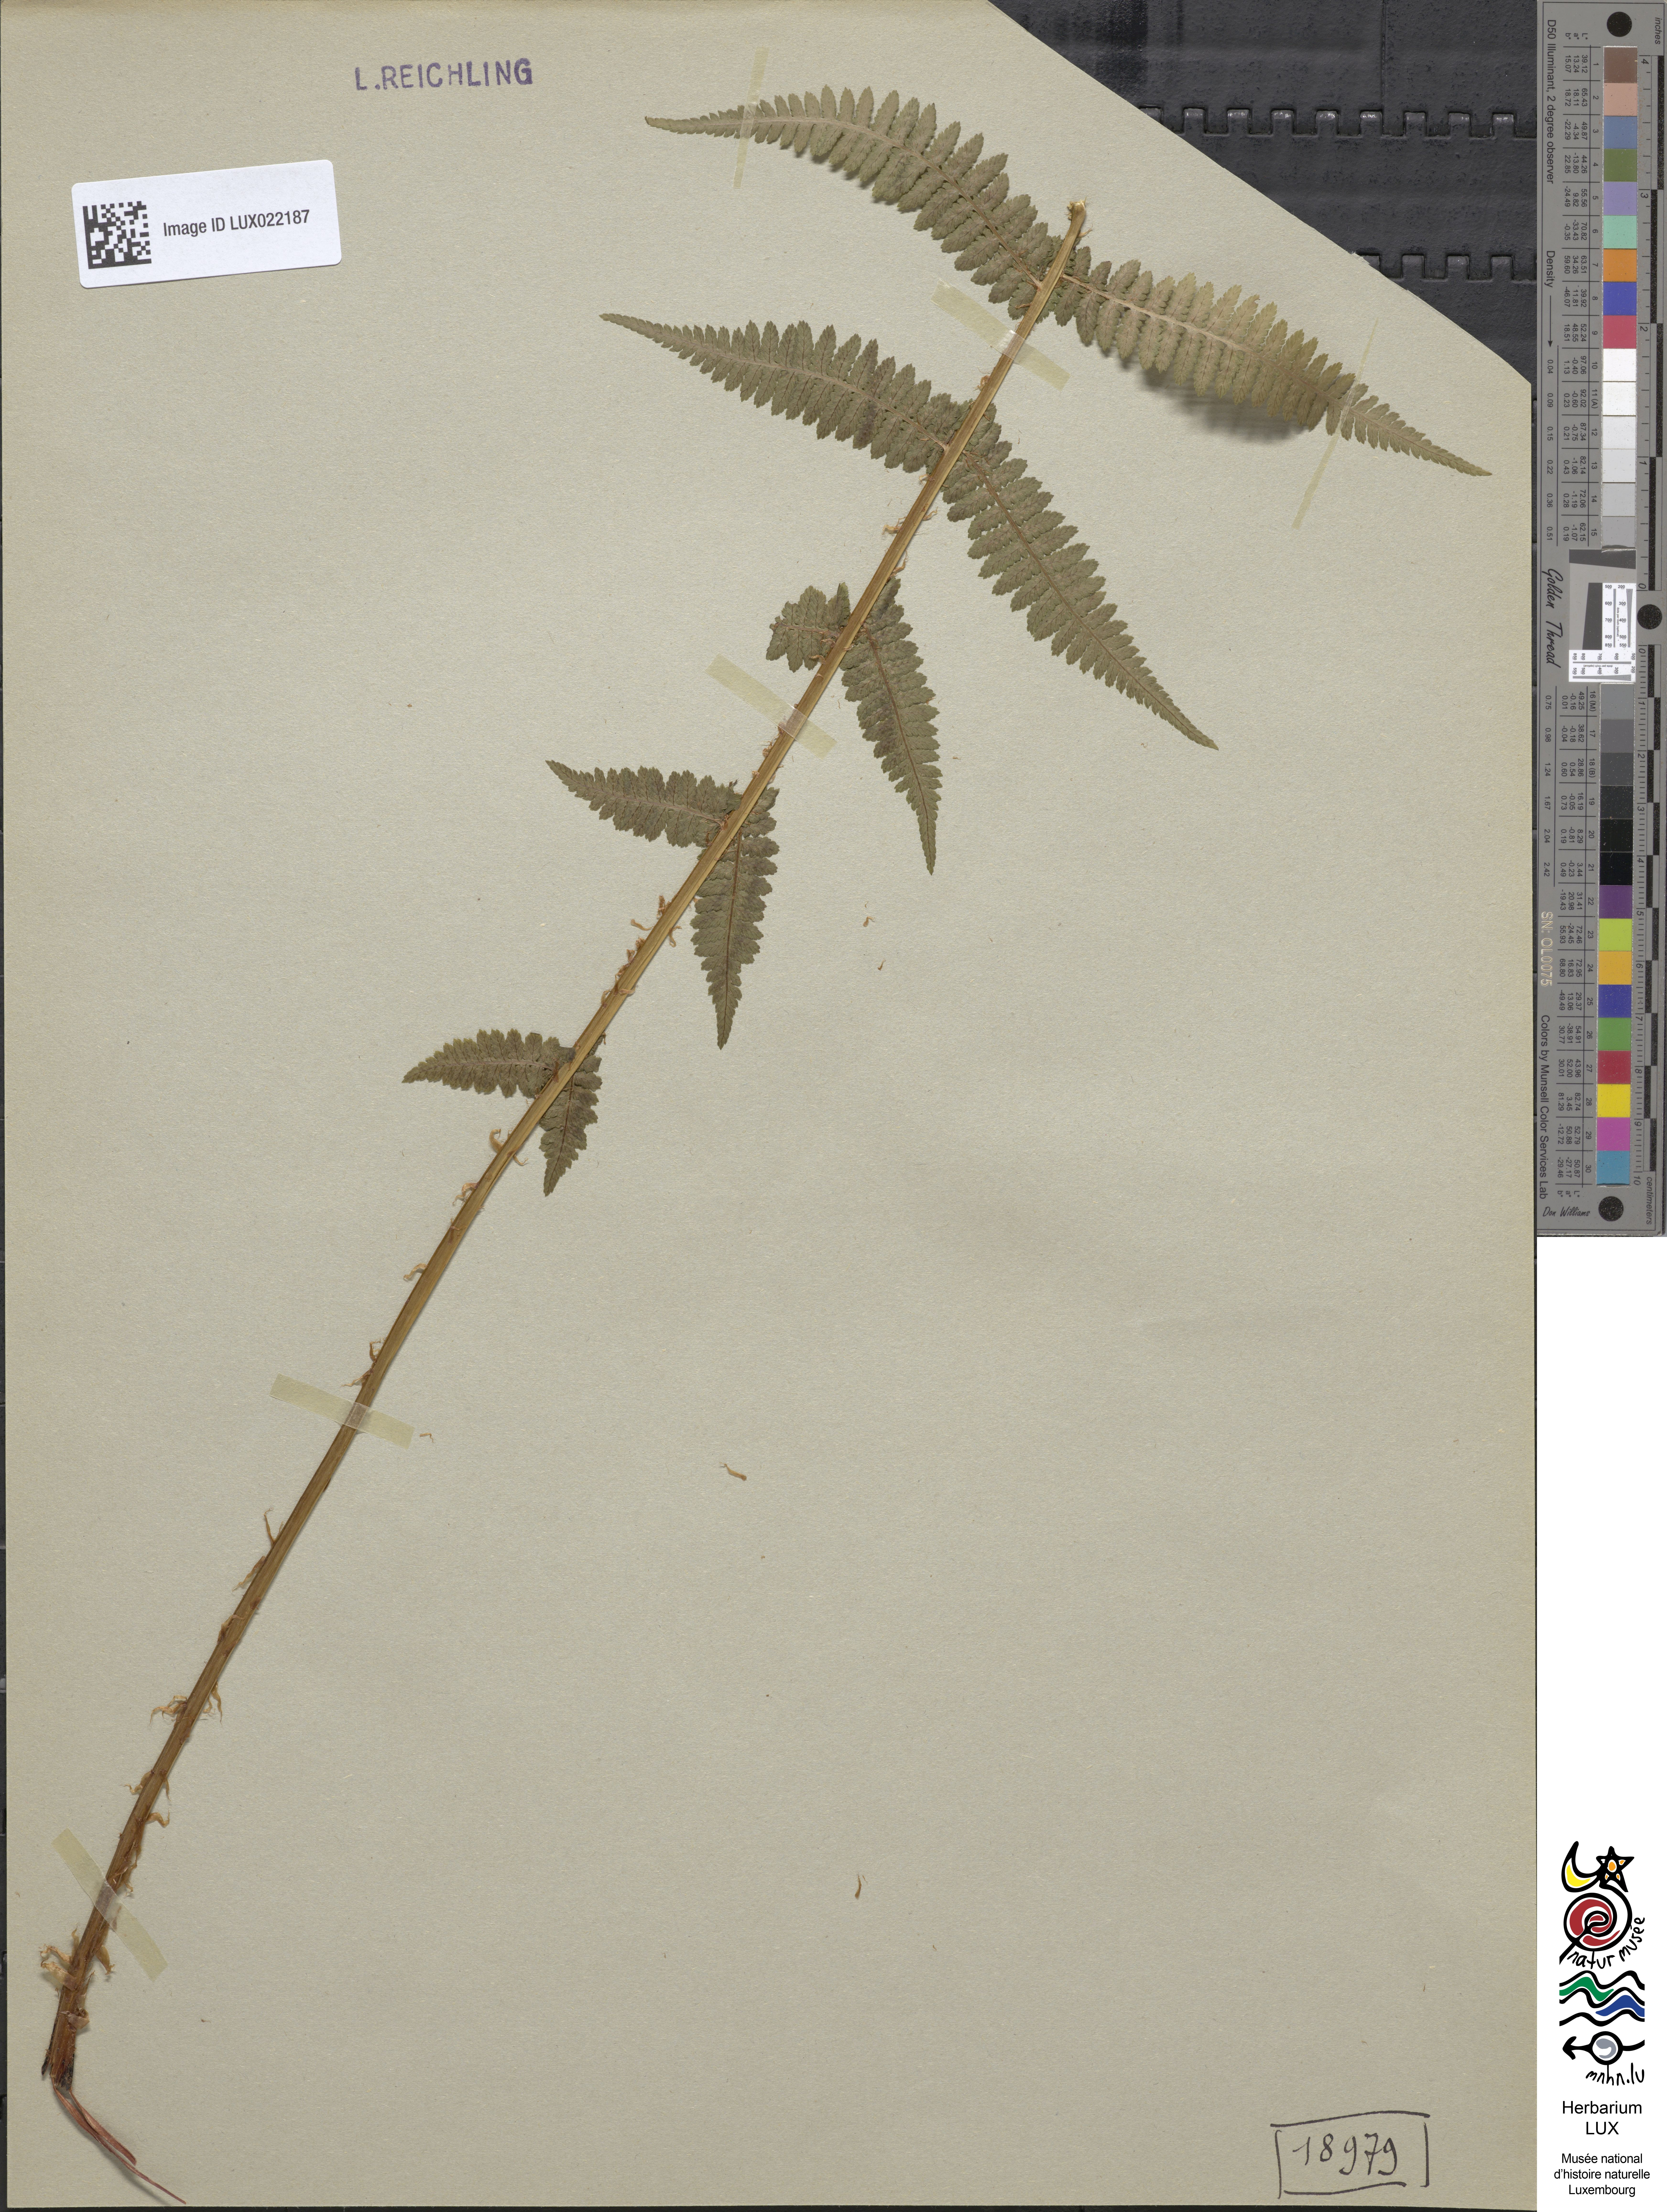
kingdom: Plantae
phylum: Tracheophyta
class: Polypodiopsida
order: Polypodiales
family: Athyriaceae
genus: Athyrium
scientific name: Athyrium filix-femina
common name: Lady fern
